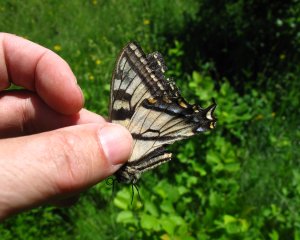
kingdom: Animalia
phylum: Arthropoda
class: Insecta
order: Lepidoptera
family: Papilionidae
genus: Pterourus
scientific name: Pterourus canadensis
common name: Canadian Tiger Swallowtail
